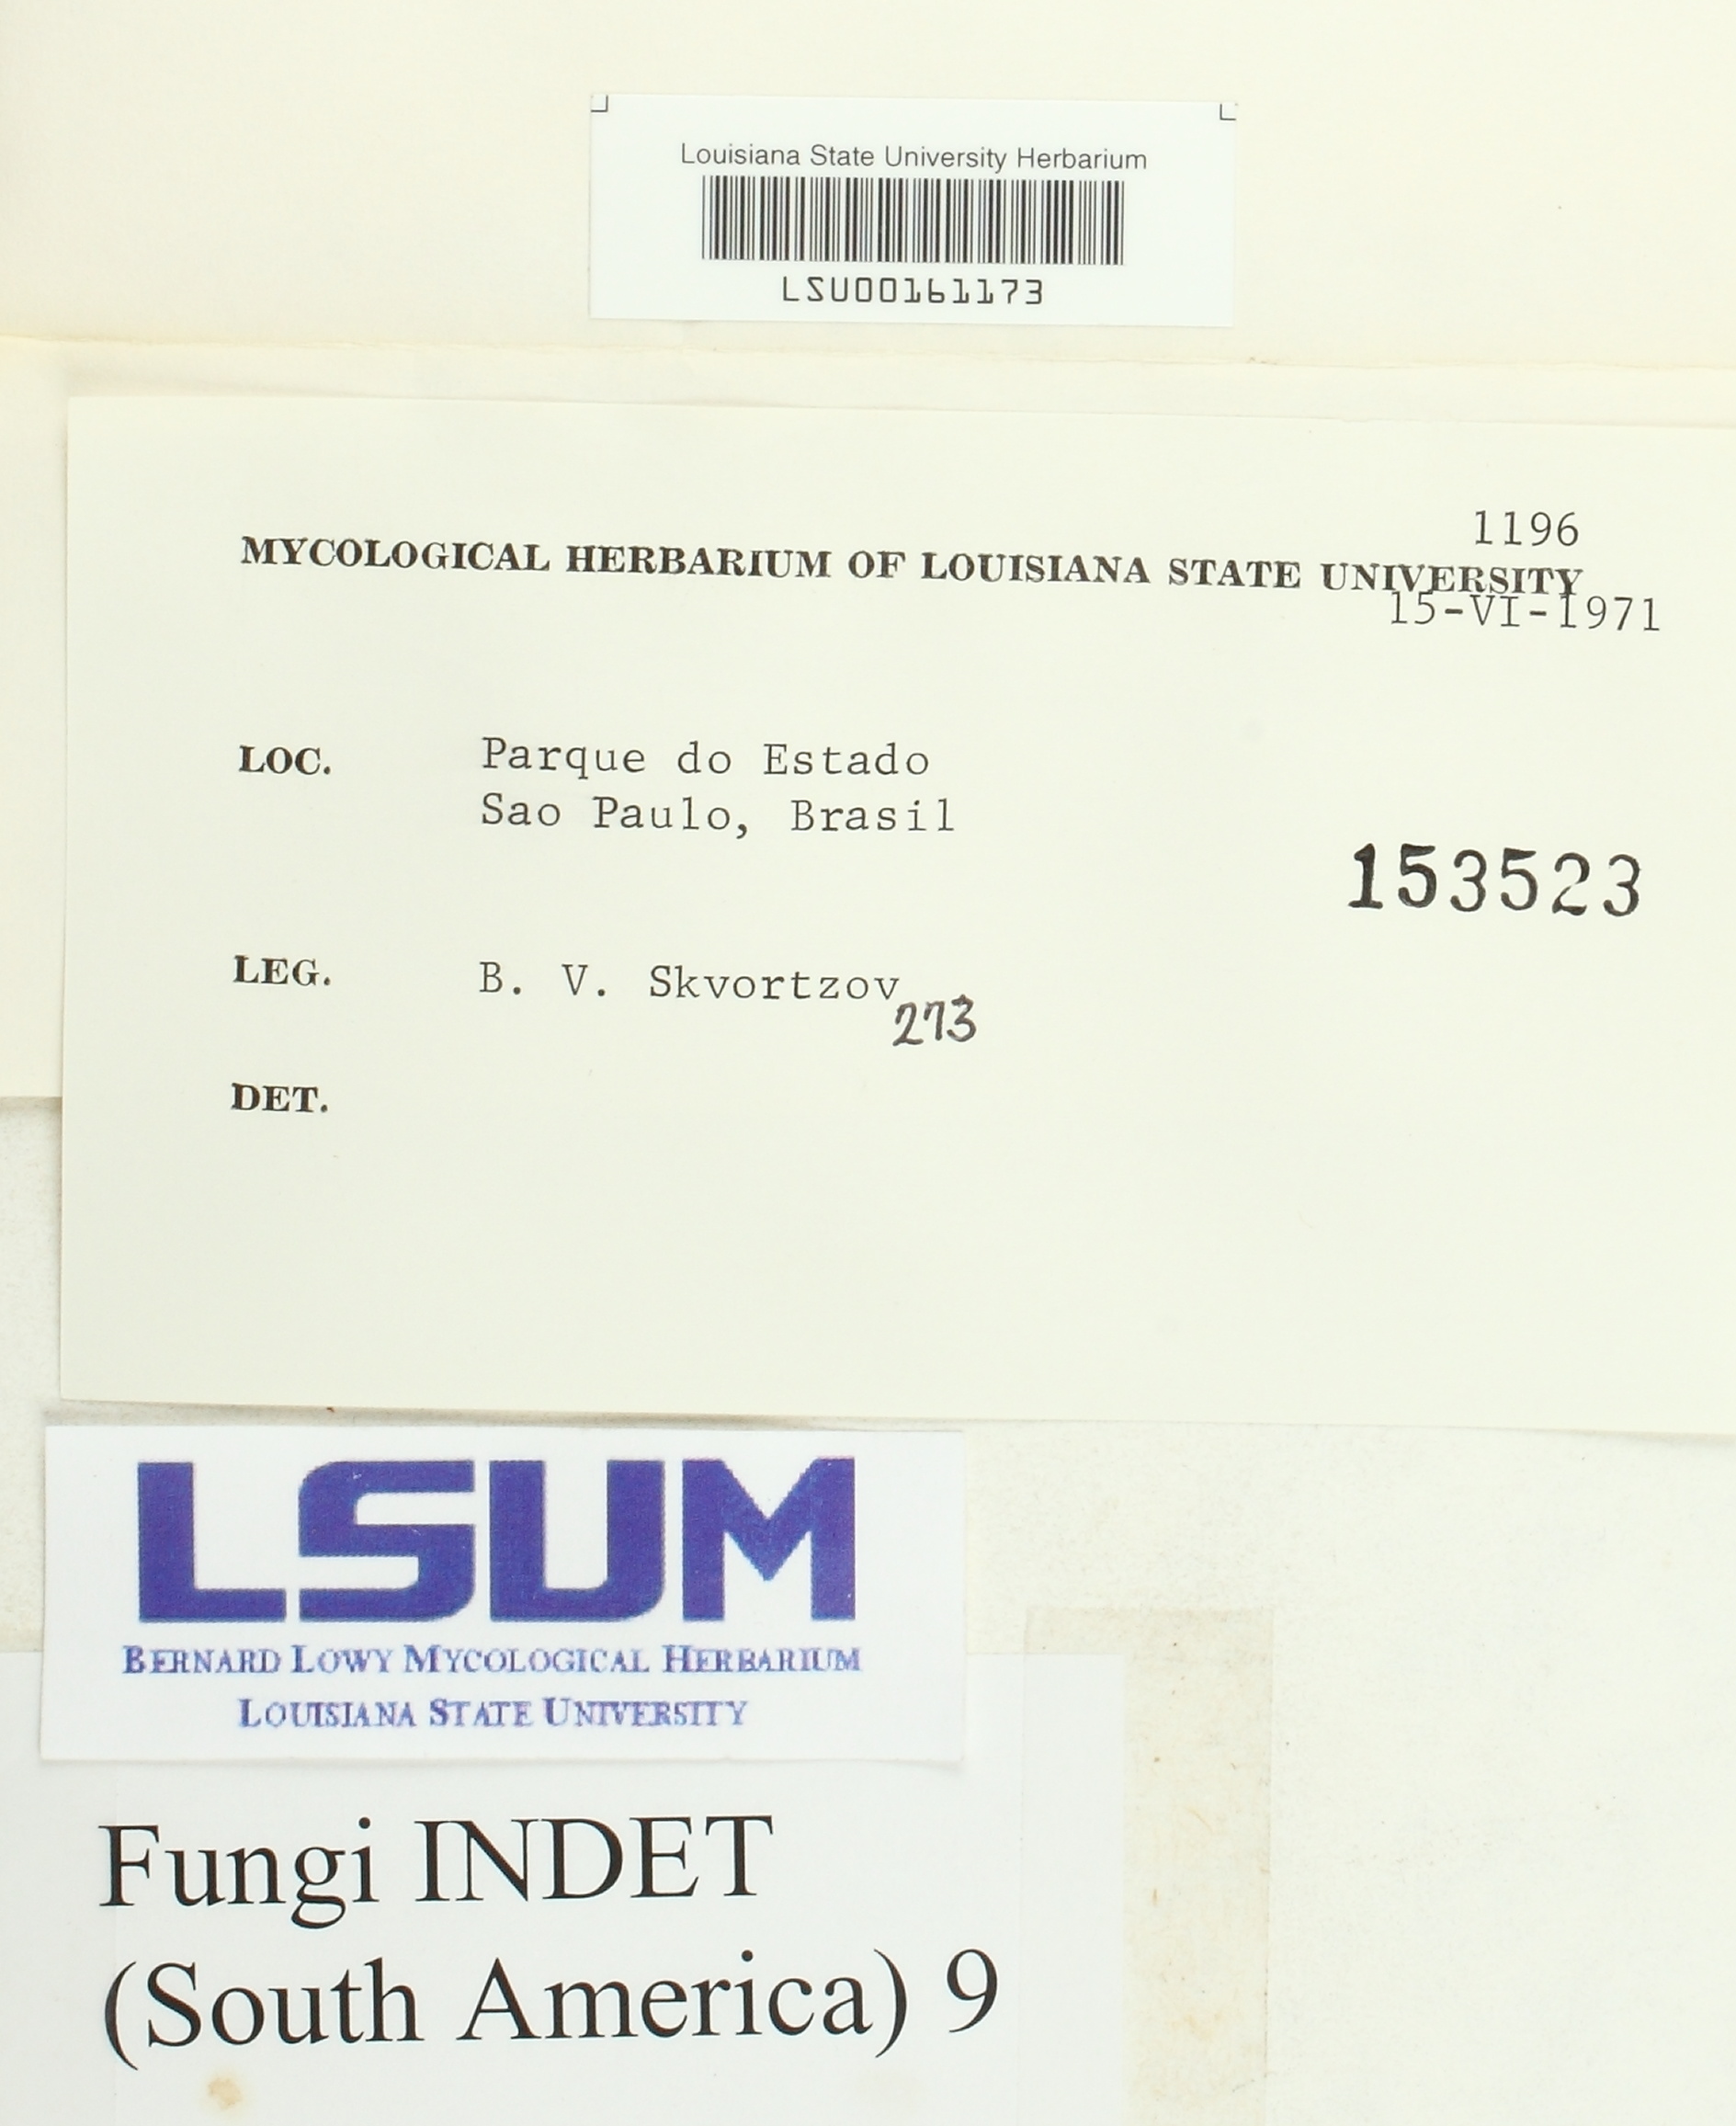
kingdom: Fungi
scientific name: Fungi
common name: Fungi
